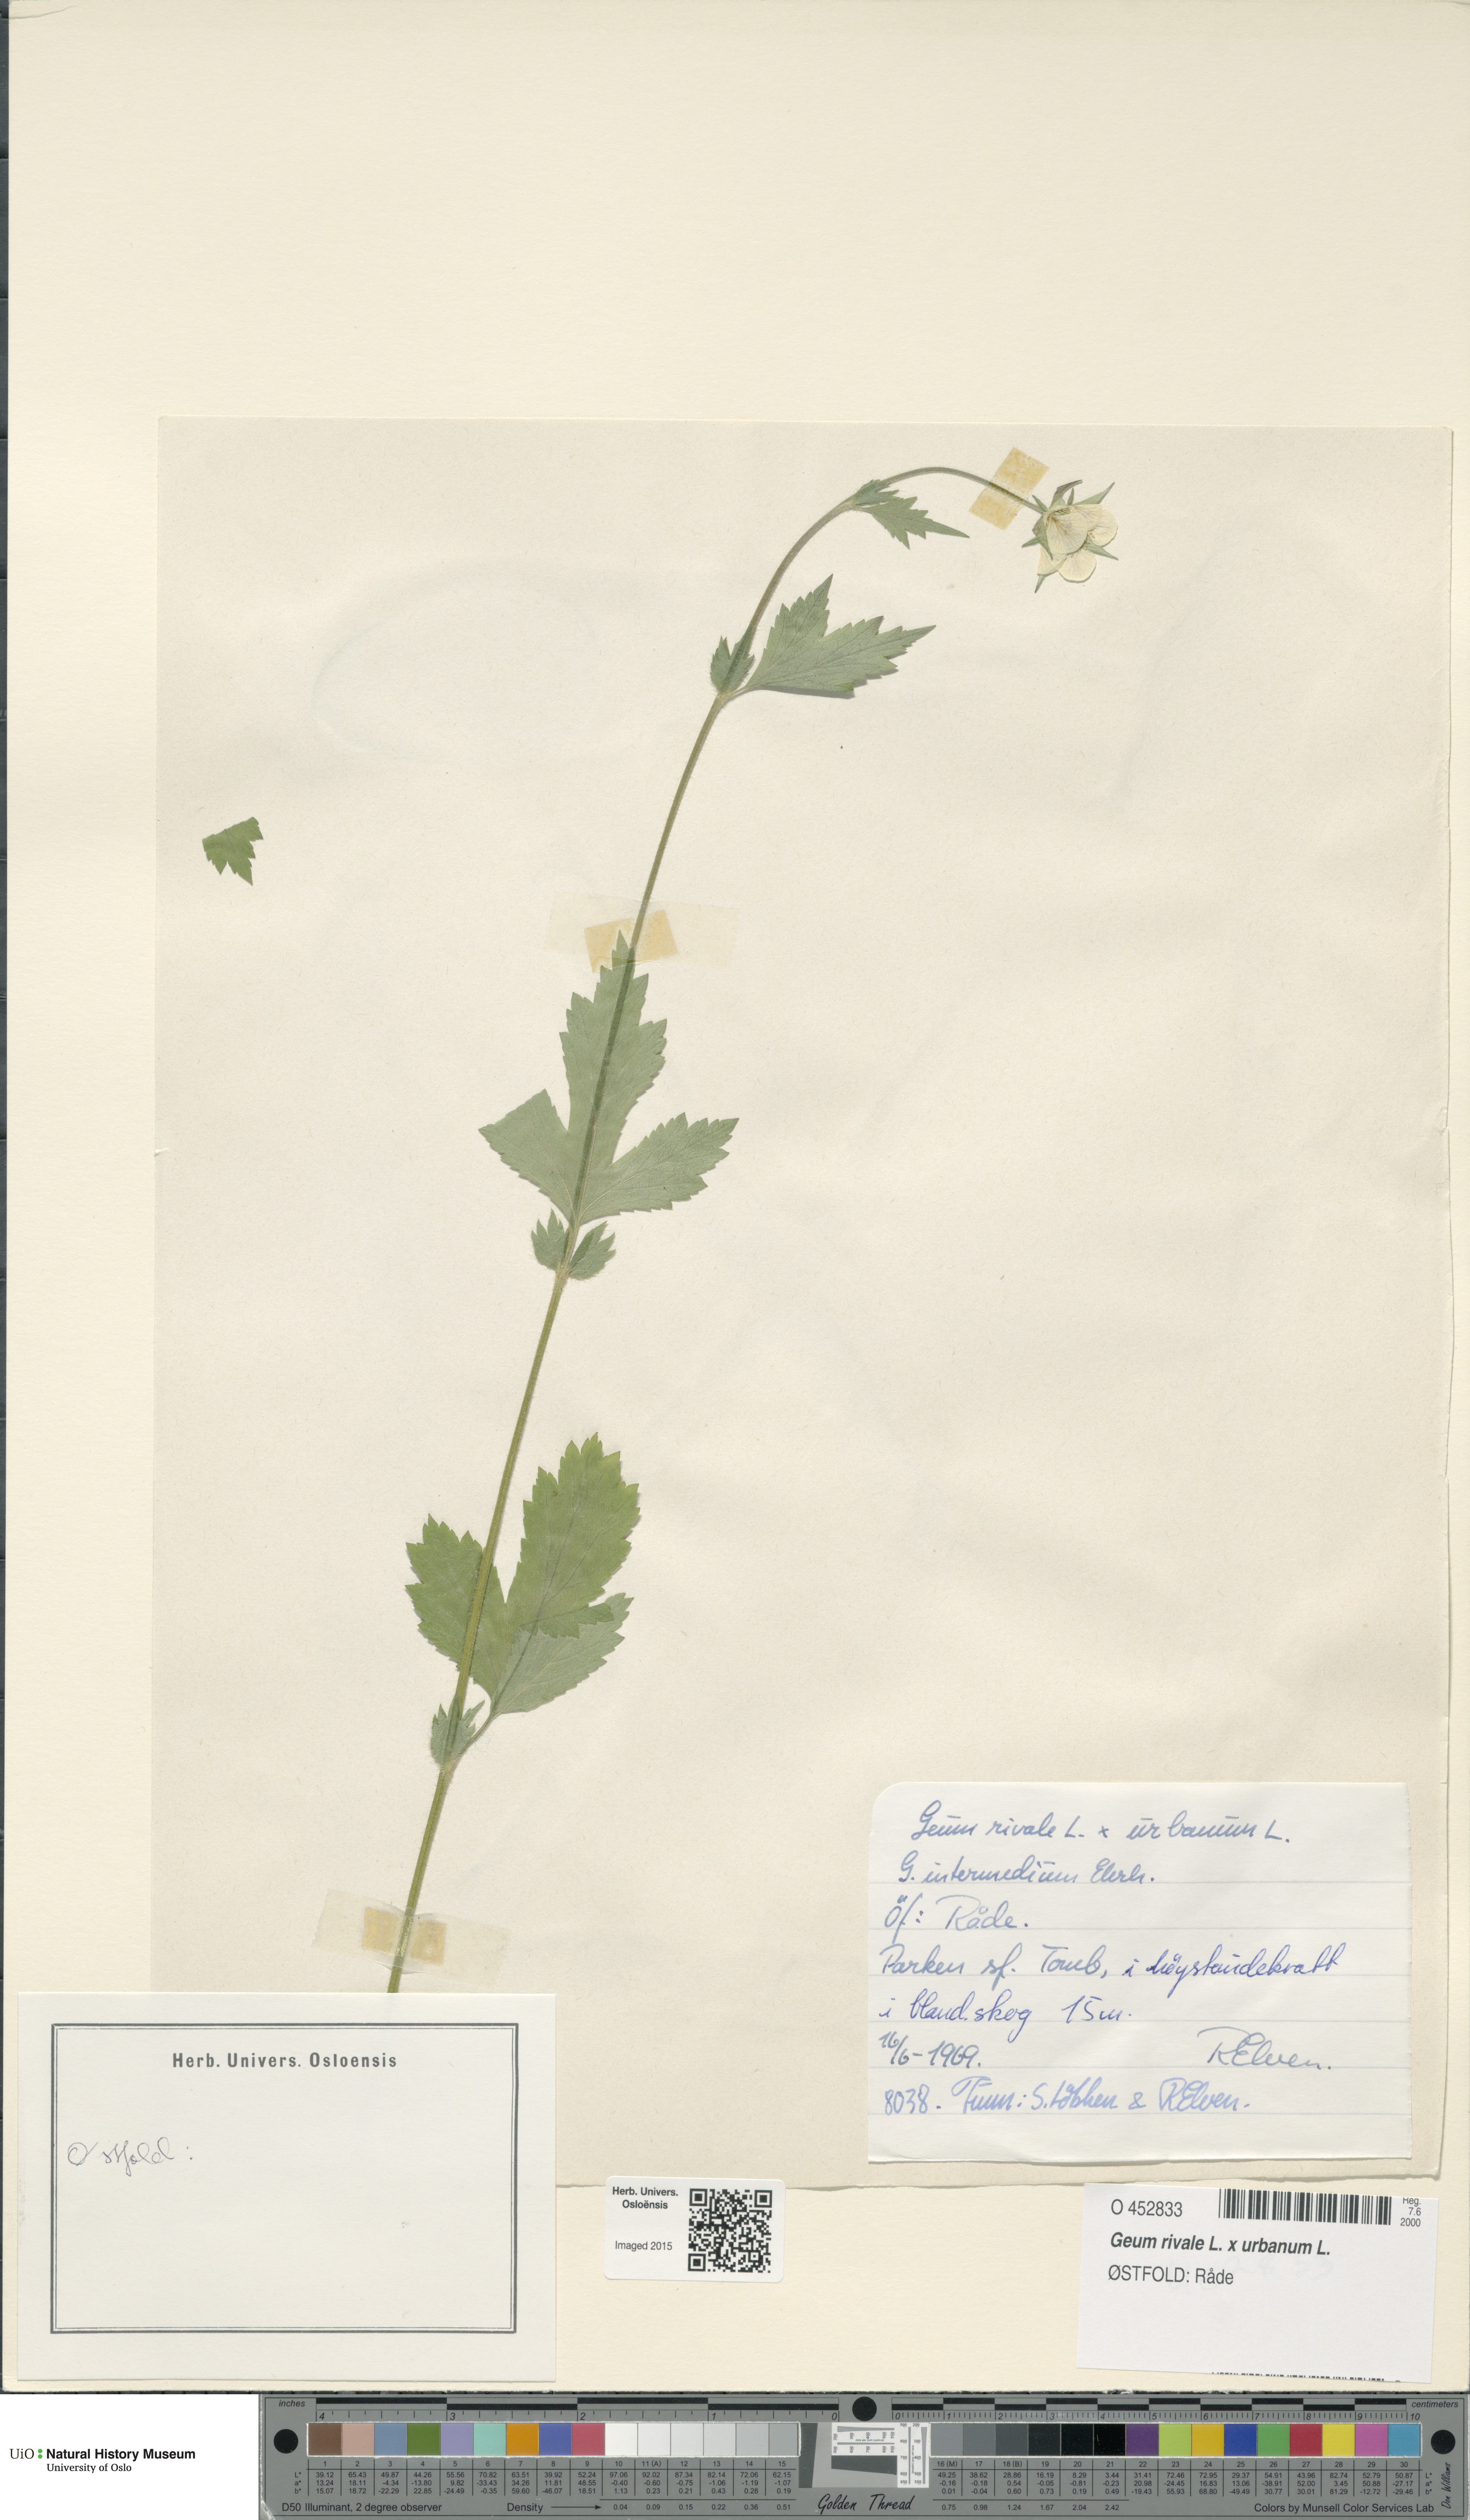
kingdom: Plantae
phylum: Tracheophyta
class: Magnoliopsida
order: Rosales
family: Rosaceae
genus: Geum
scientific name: Geum
